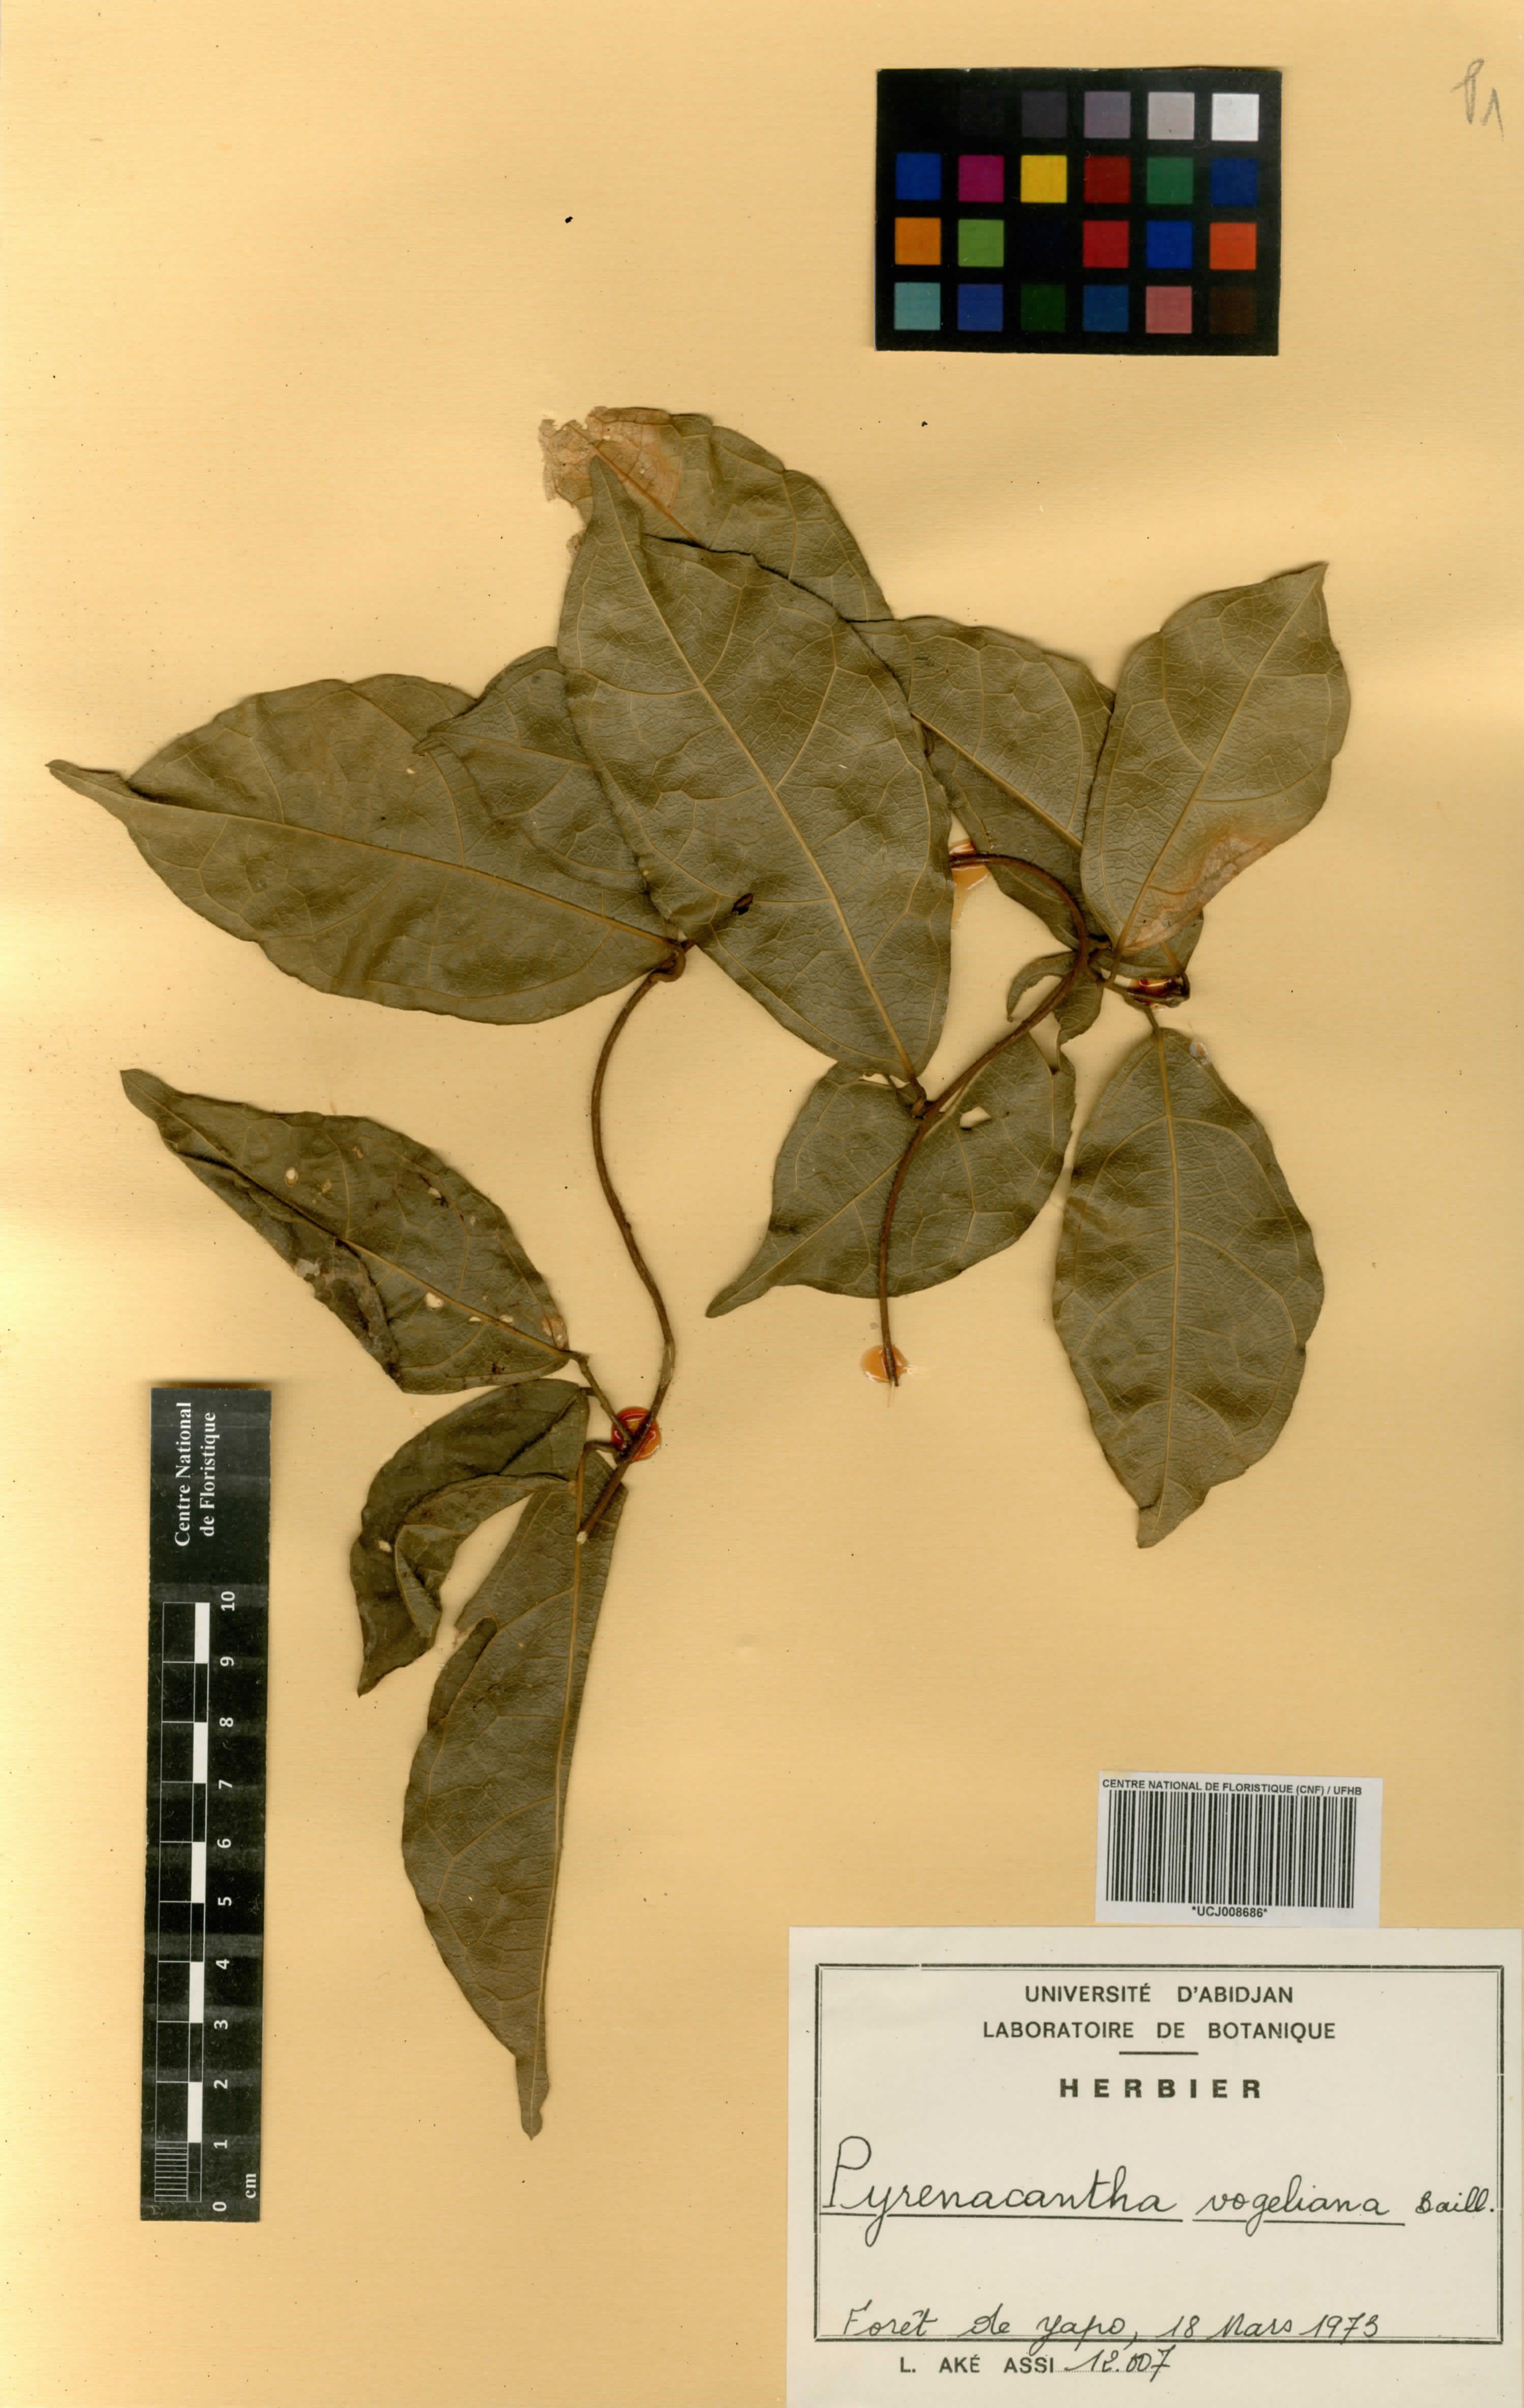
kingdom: Plantae
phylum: Tracheophyta
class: Magnoliopsida
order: Icacinales
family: Icacinaceae
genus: Pyrenacantha
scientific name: Pyrenacantha vogeliana
